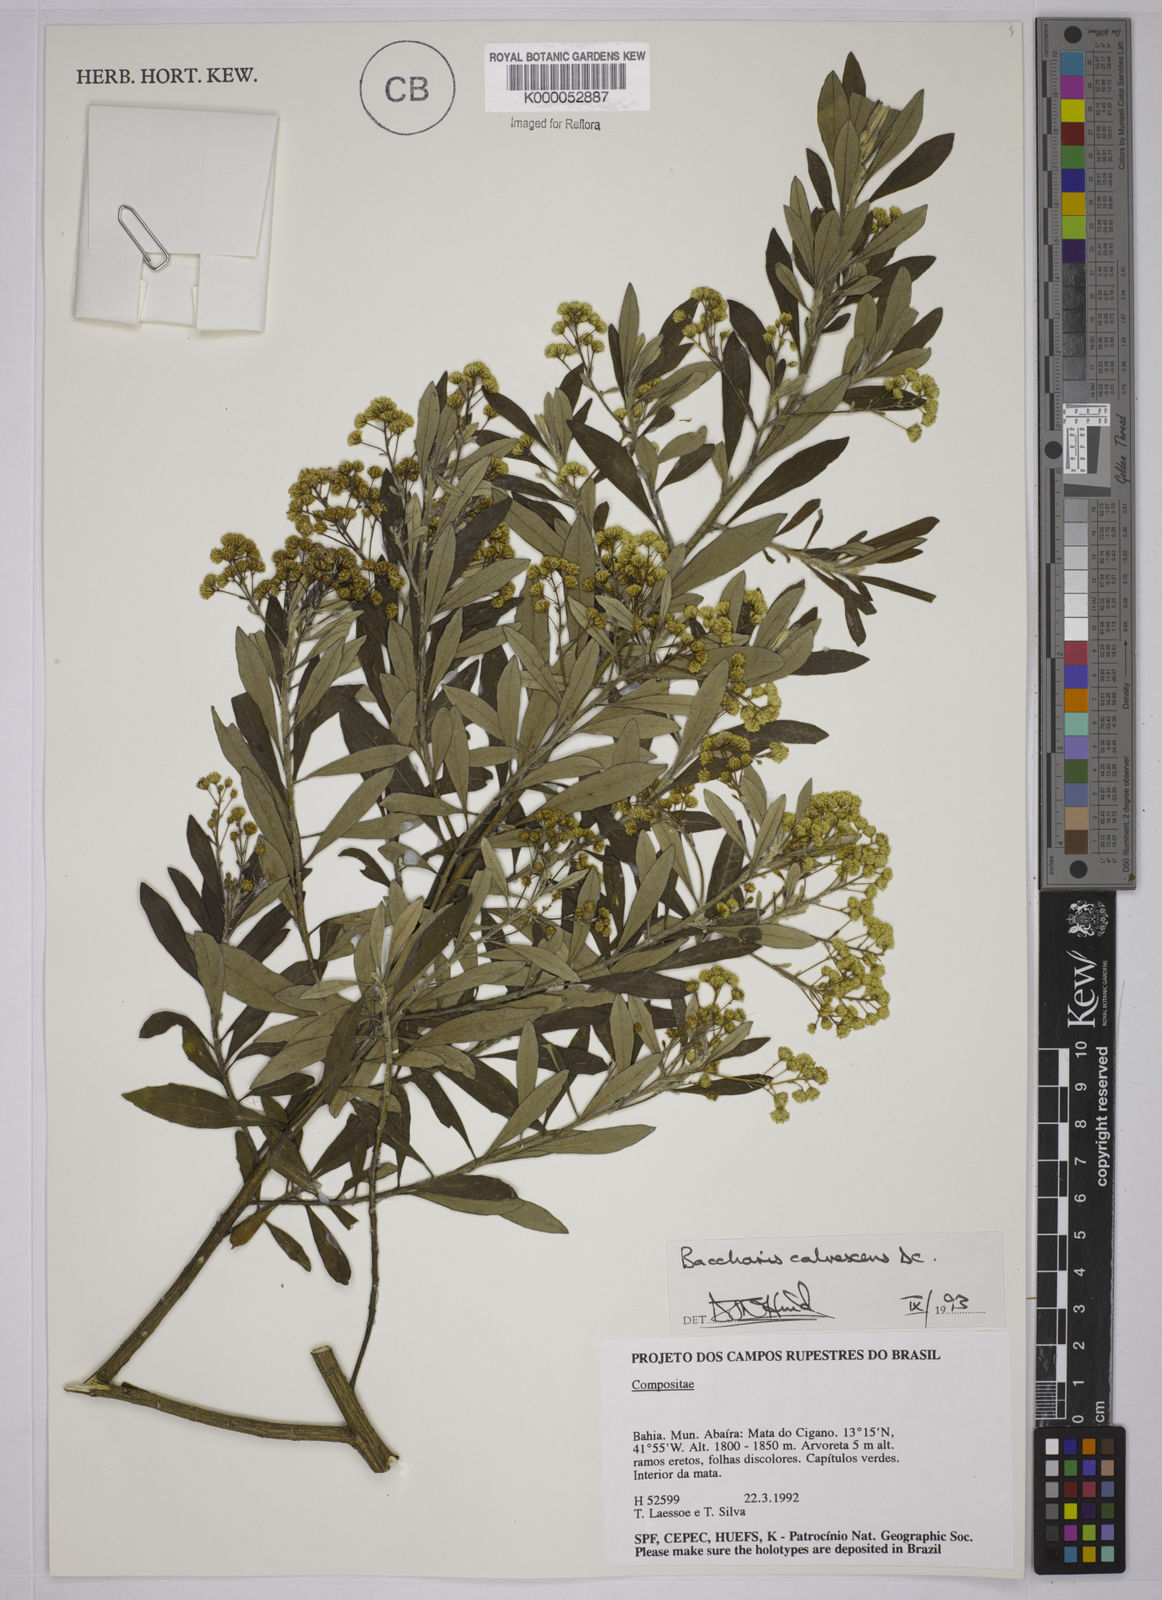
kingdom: Plantae
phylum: Tracheophyta
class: Magnoliopsida
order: Asterales
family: Asteraceae
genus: Baccharis
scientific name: Baccharis calvescens
